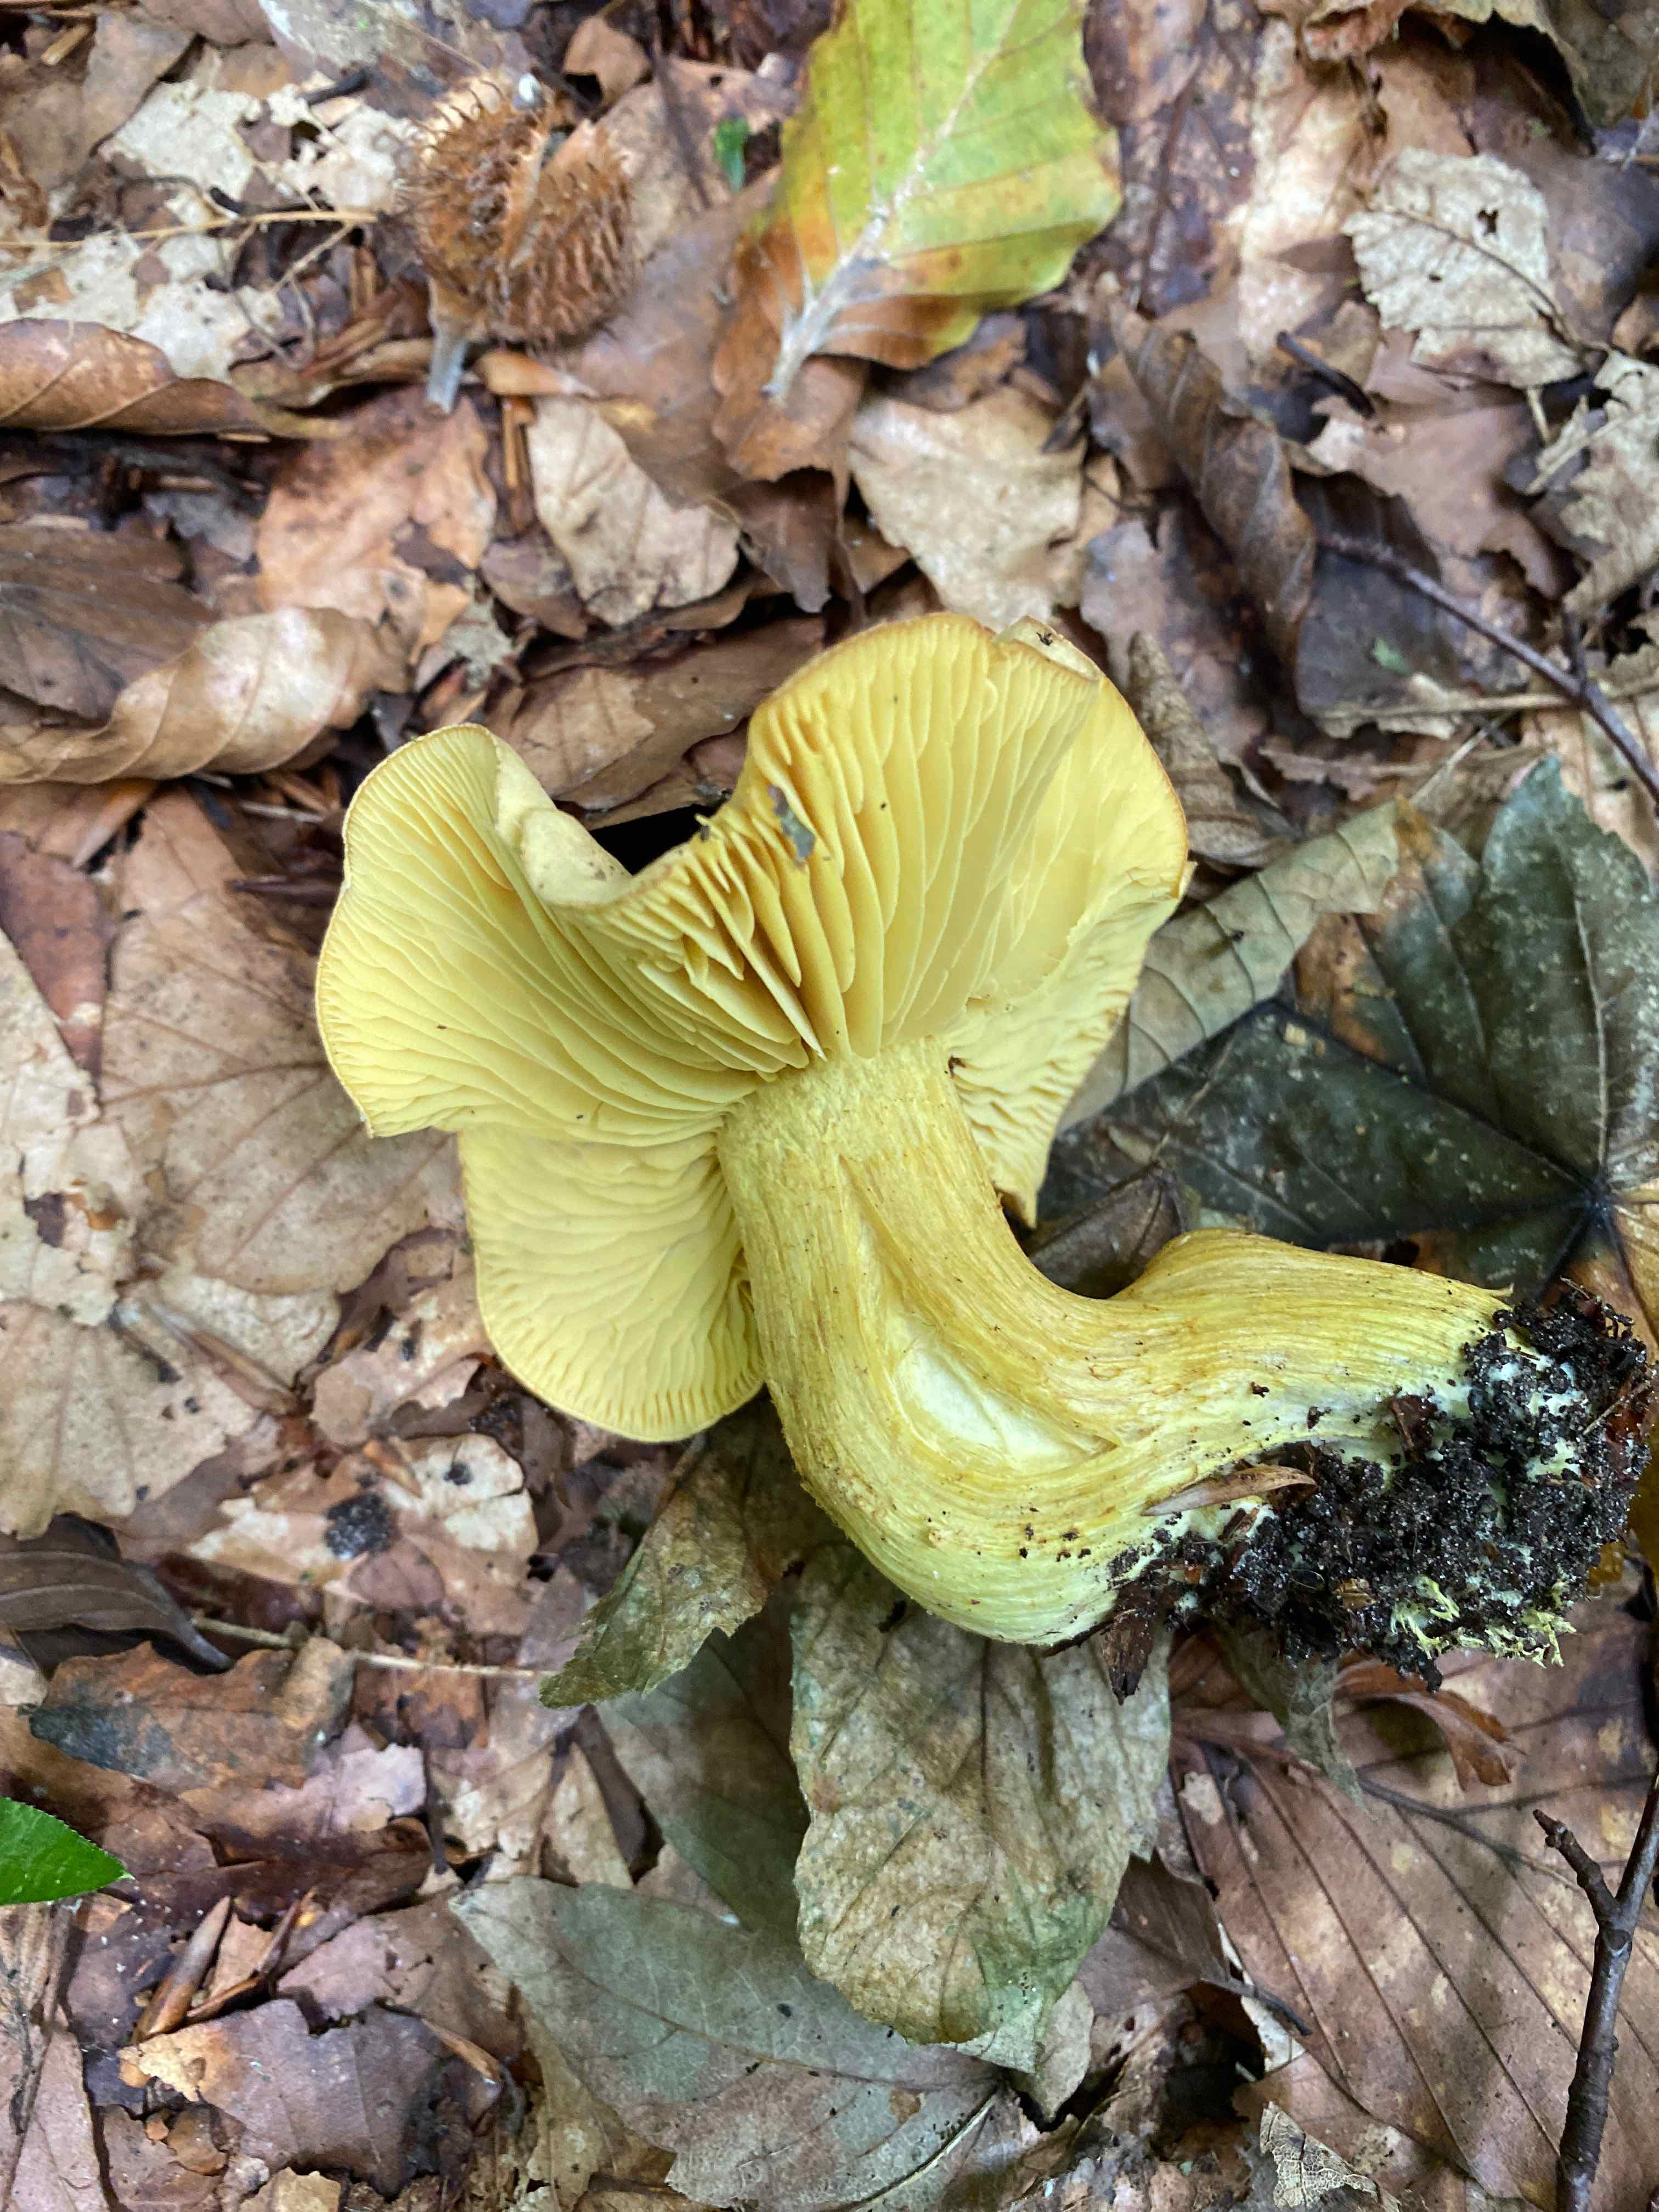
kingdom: Fungi
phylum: Basidiomycota
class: Agaricomycetes
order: Agaricales
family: Tricholomataceae
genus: Tricholoma
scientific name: Tricholoma sulphureum
